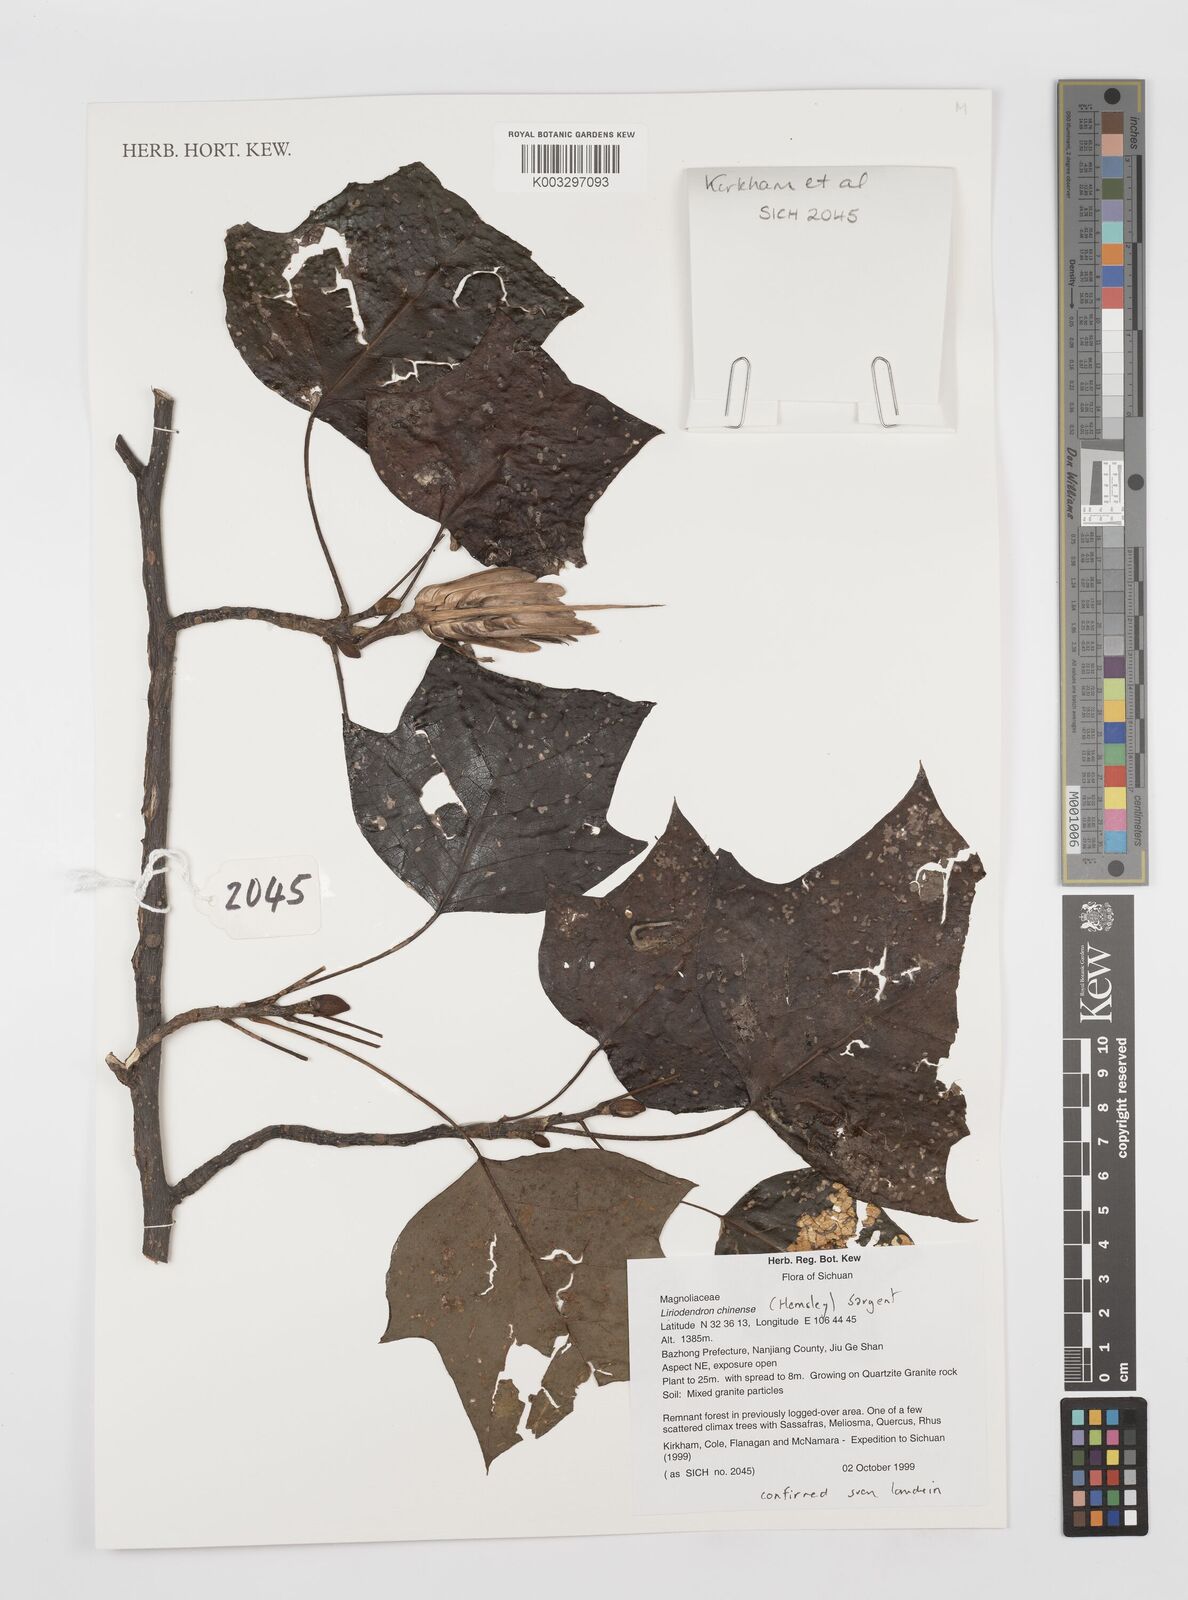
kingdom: Plantae
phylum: Tracheophyta
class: Magnoliopsida
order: Magnoliales
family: Magnoliaceae
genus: Liriodendron
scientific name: Liriodendron chinense
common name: Chinese tuliptree
